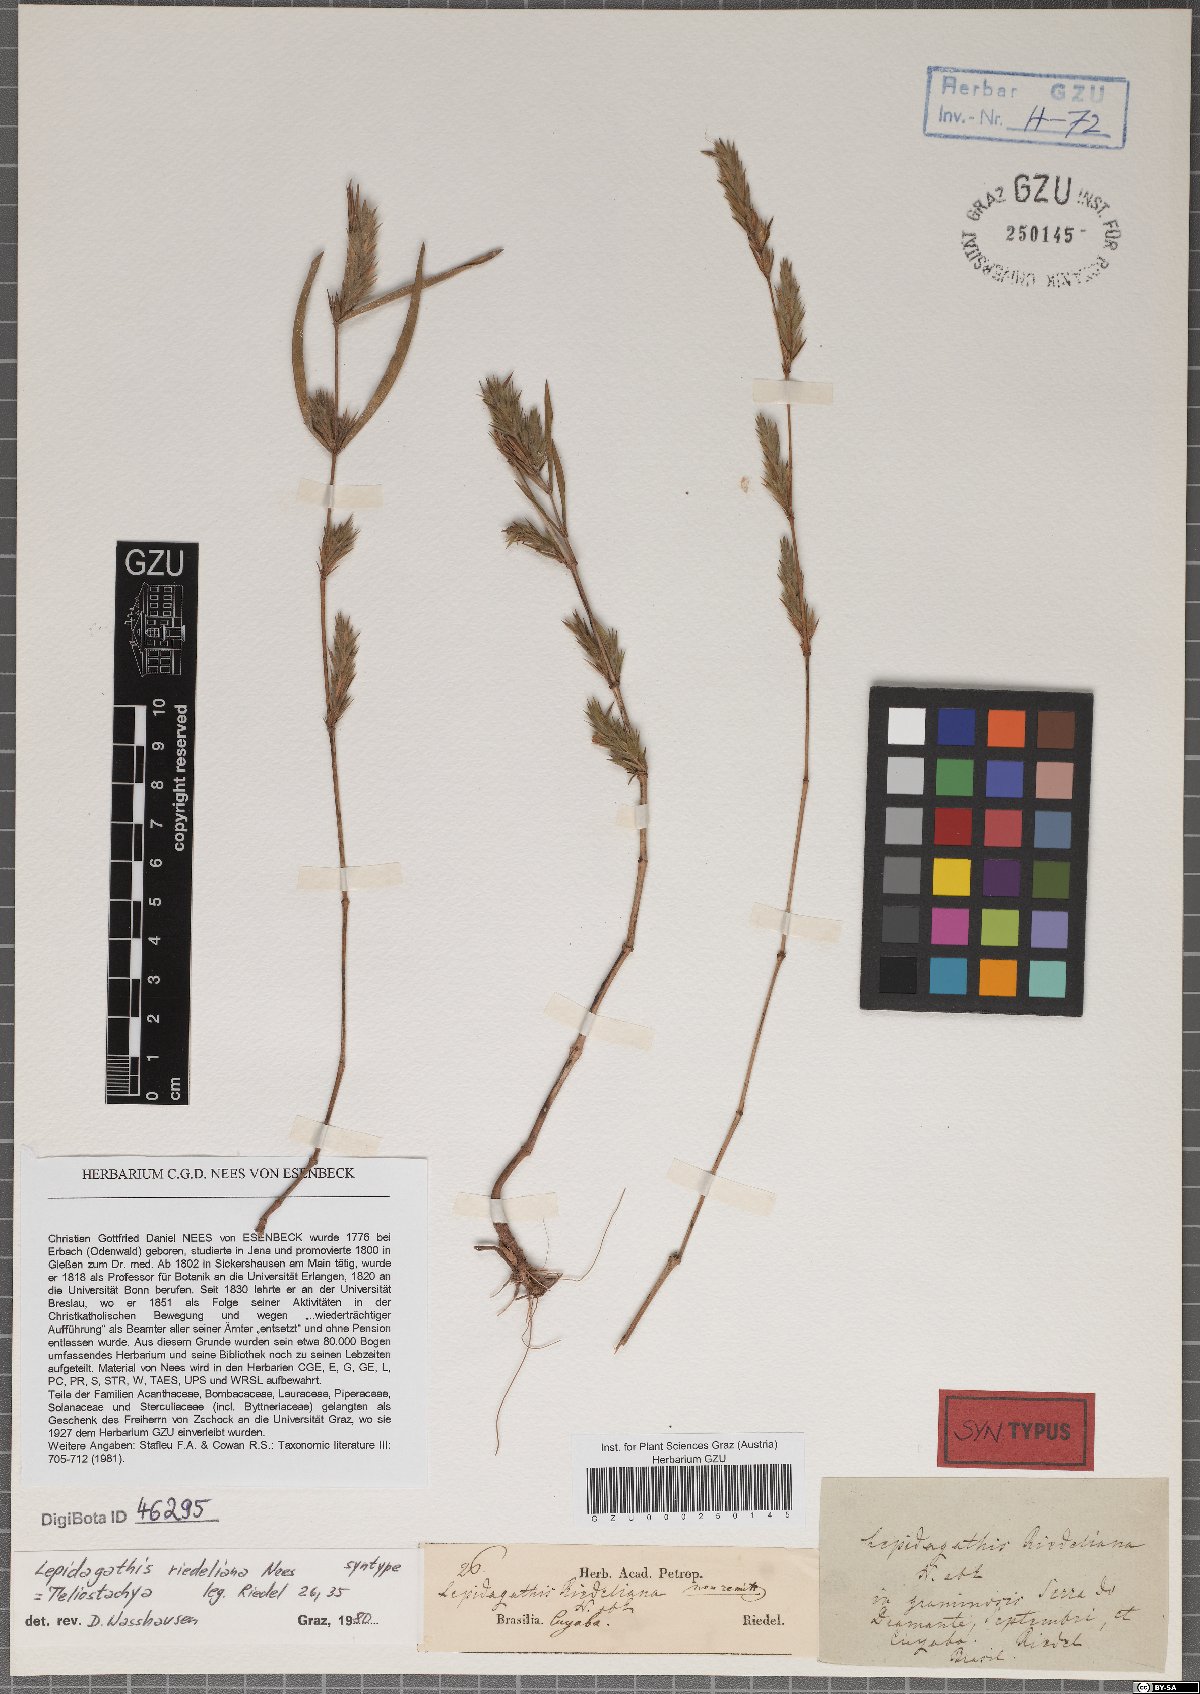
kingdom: Plantae
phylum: Tracheophyta
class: Magnoliopsida
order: Lamiales
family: Acanthaceae
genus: Lepidagathis
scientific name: Lepidagathis riedeliana
